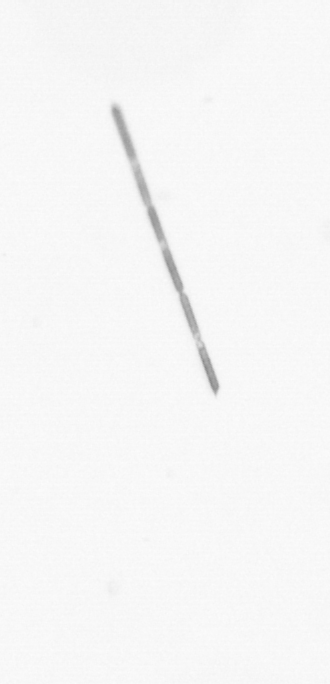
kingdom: Chromista
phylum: Ochrophyta
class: Bacillariophyceae
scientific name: Bacillariophyceae
